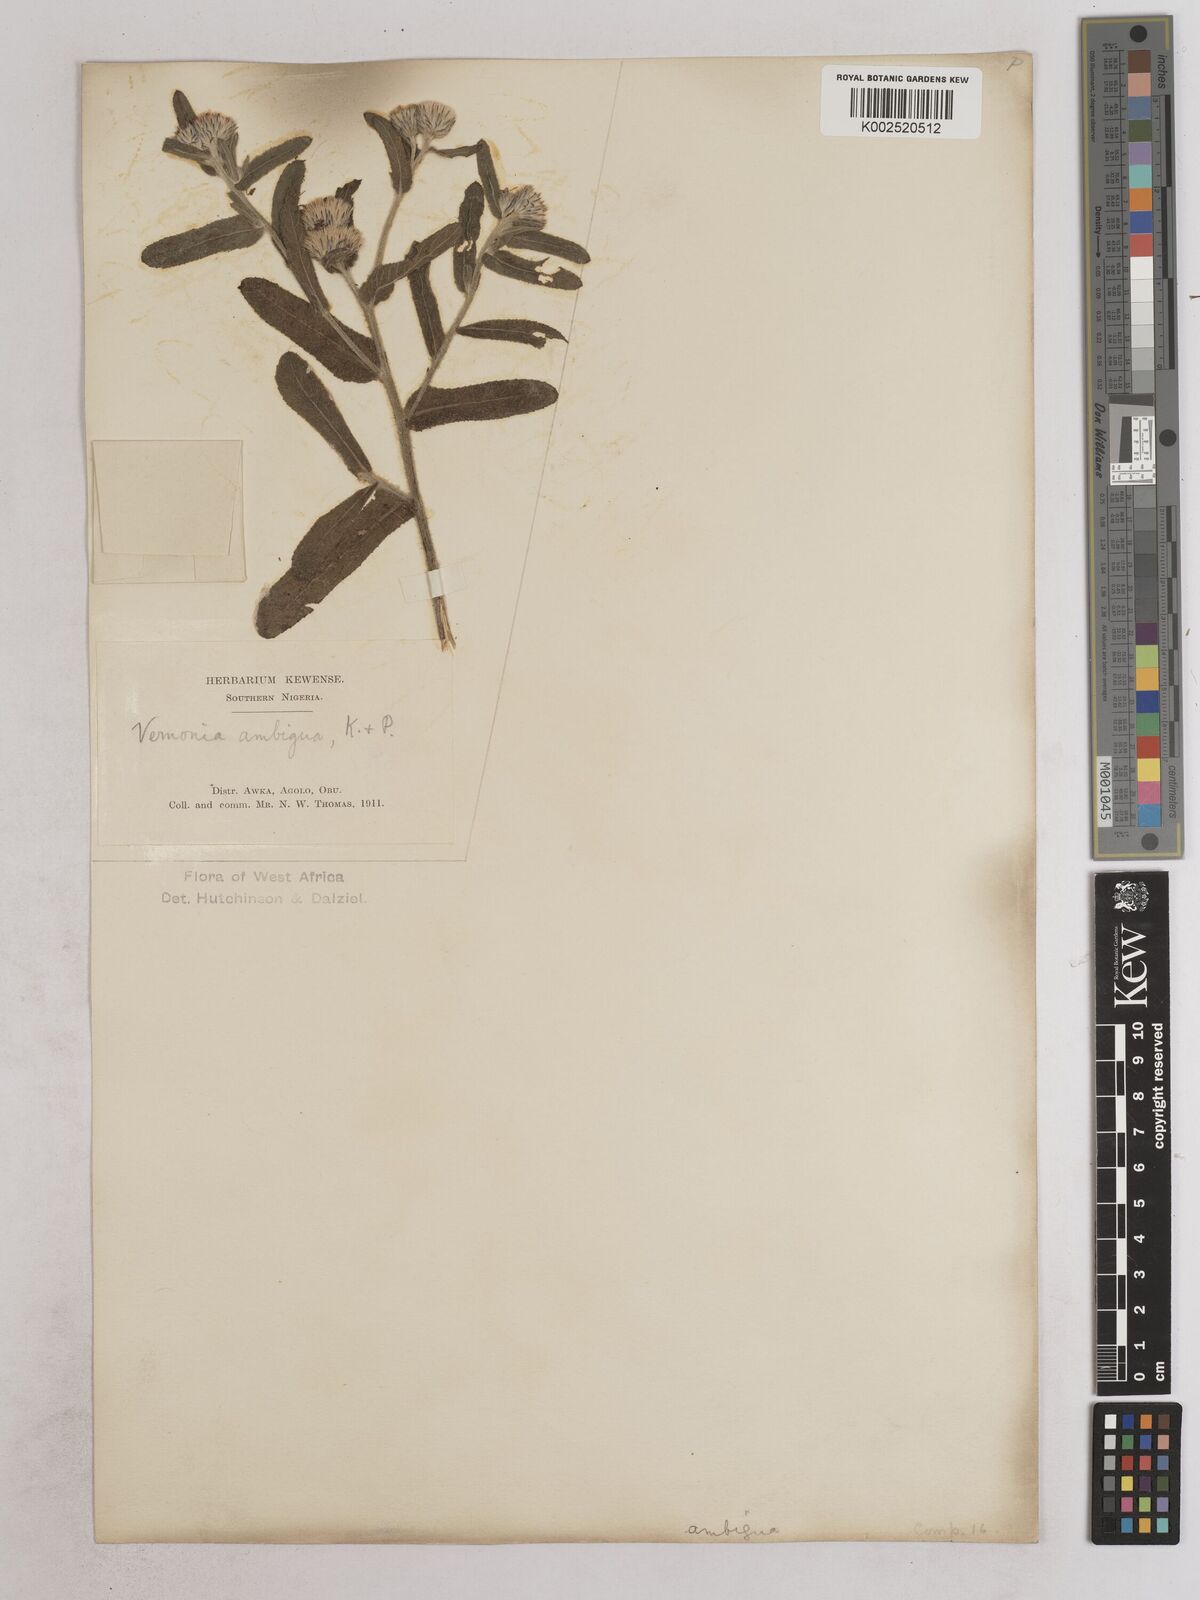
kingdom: Plantae
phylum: Tracheophyta
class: Magnoliopsida
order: Asterales
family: Asteraceae
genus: Vernoniastrum
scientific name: Vernoniastrum ambiguum
